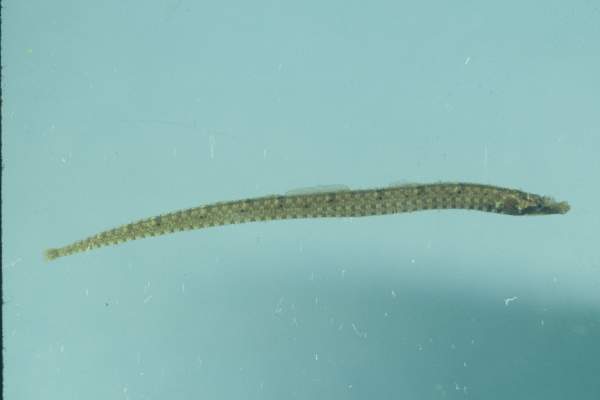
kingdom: Animalia
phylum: Chordata
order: Syngnathiformes
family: Syngnathidae
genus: Phoxocampus
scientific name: Phoxocampus belcheri
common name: Black rock pipefish
